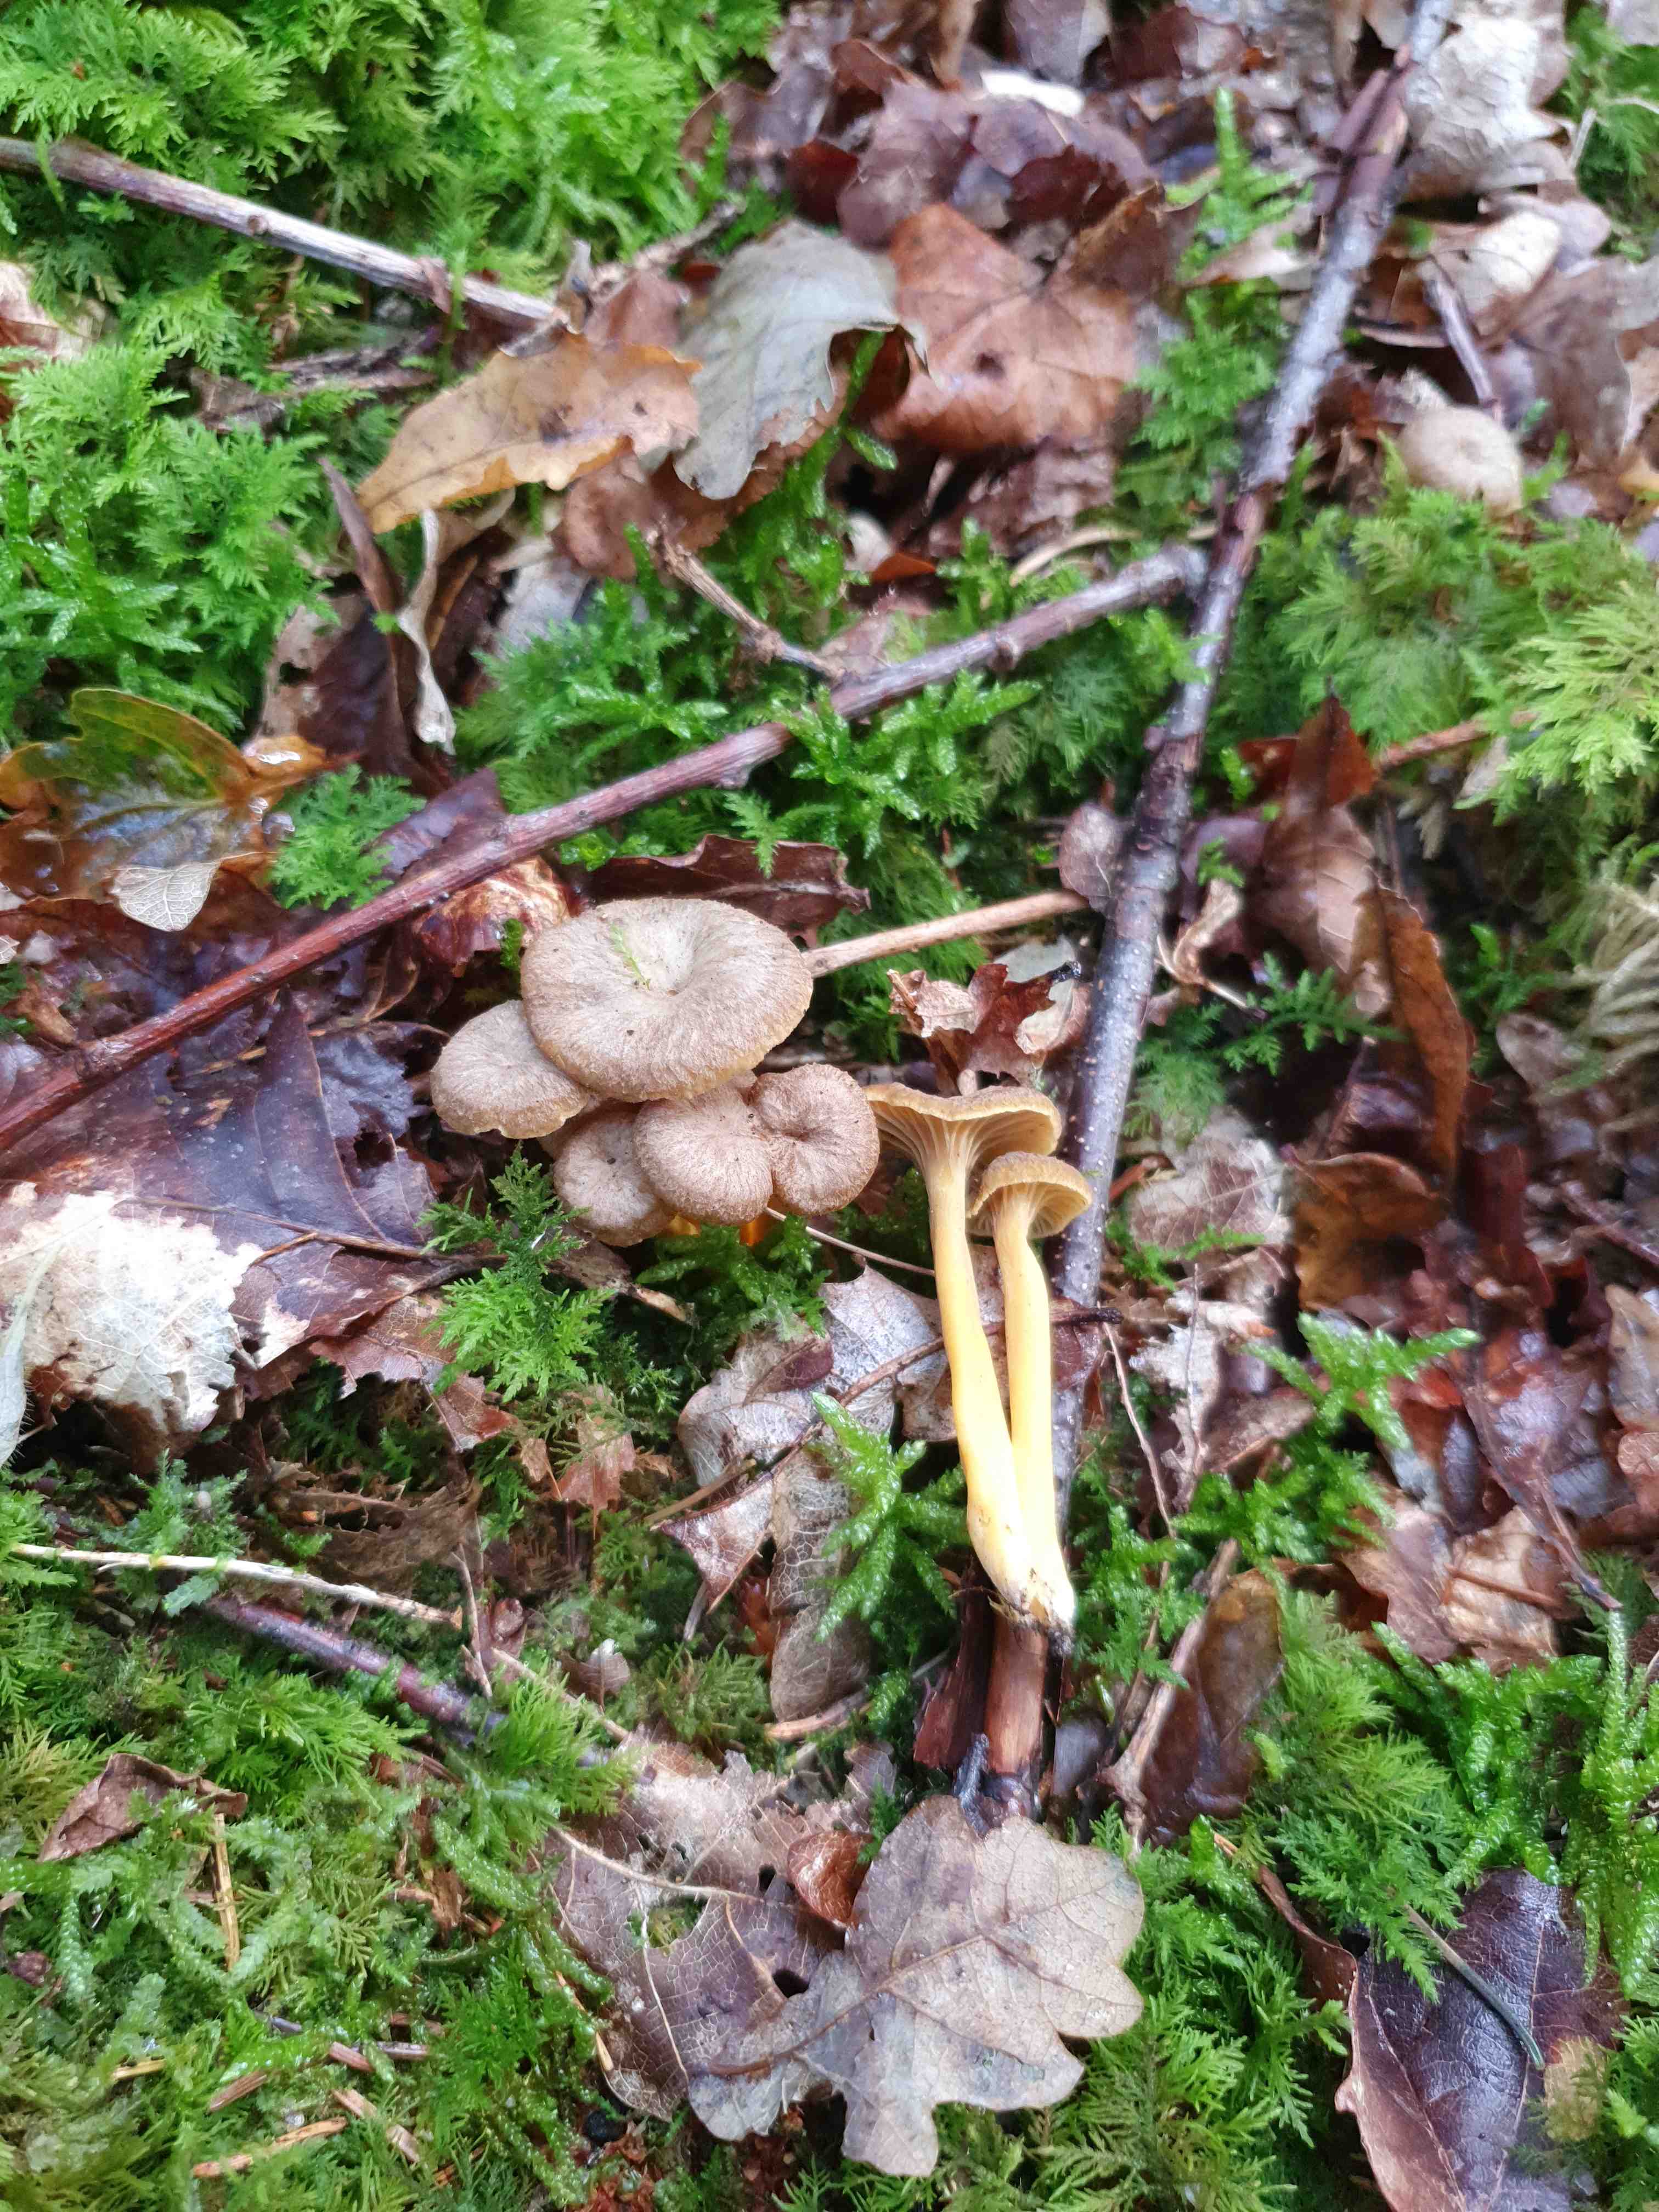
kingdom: Fungi
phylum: Basidiomycota
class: Agaricomycetes
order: Cantharellales
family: Hydnaceae
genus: Craterellus
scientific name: Craterellus tubaeformis
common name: tragt-kantarel
